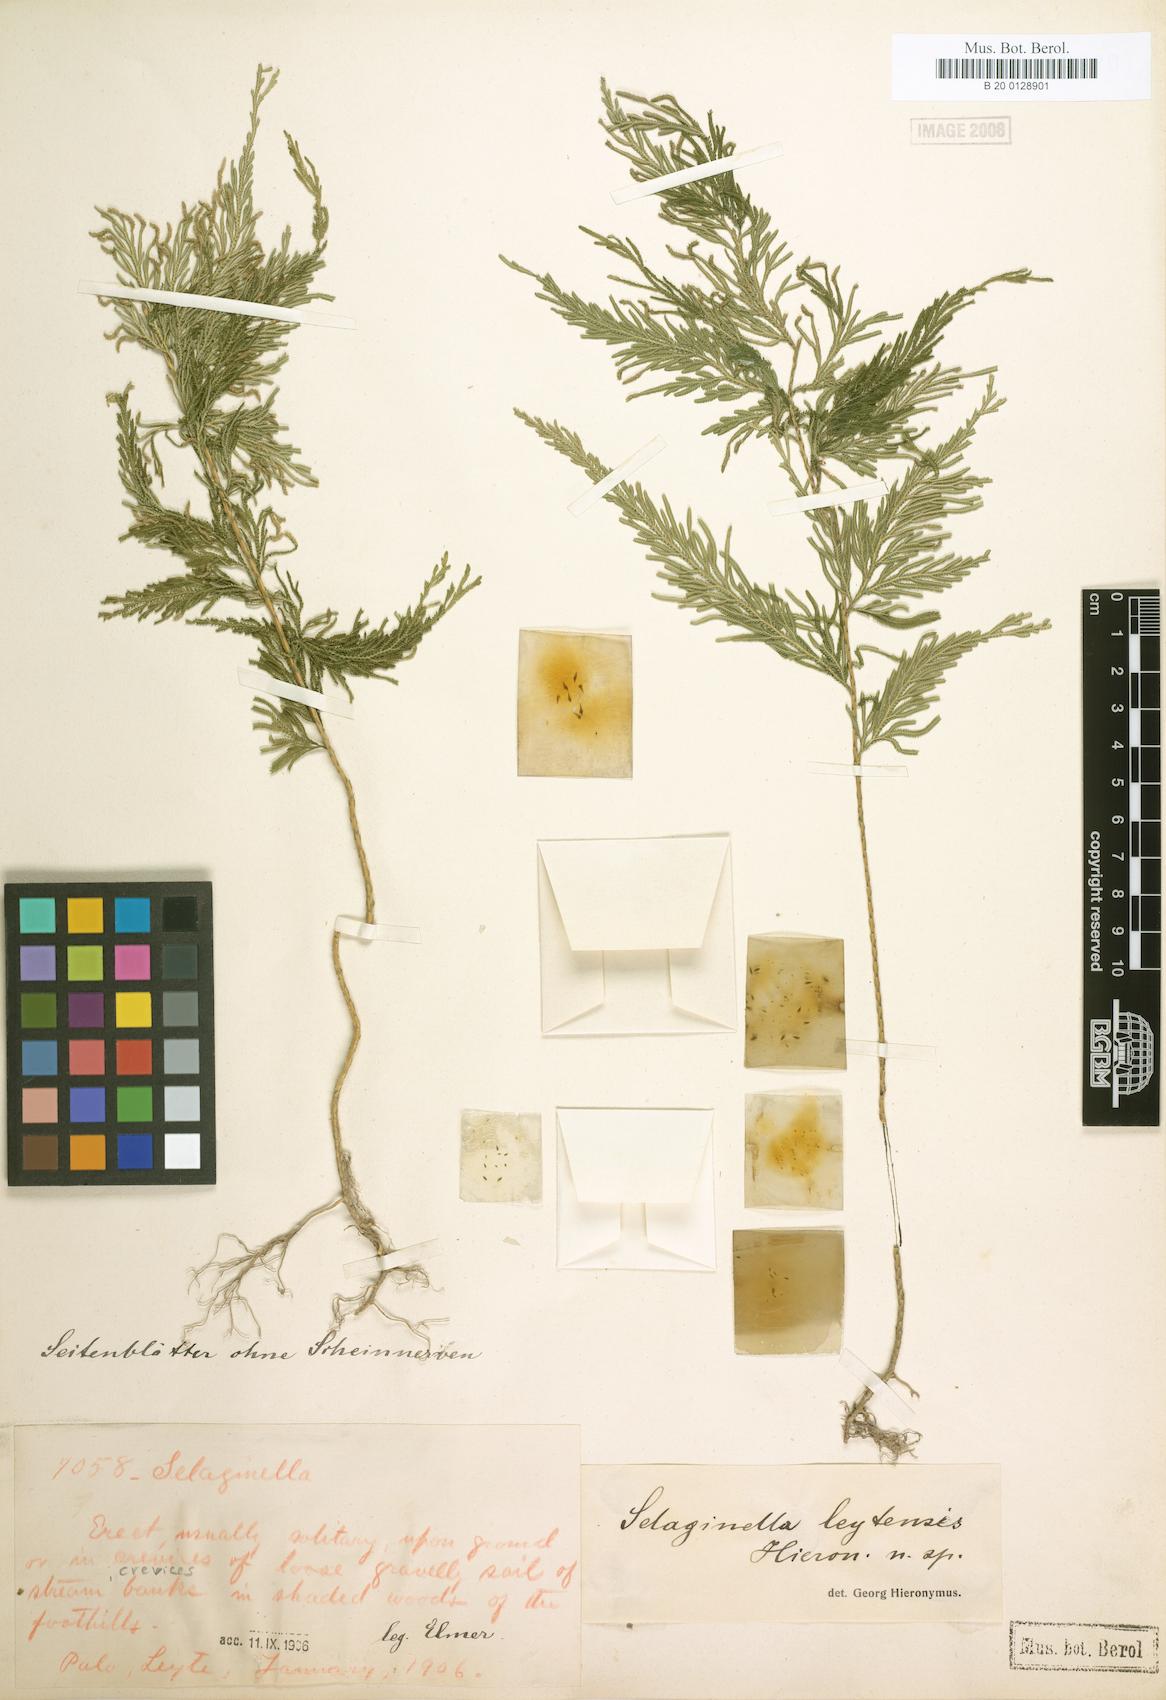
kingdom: Plantae
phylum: Tracheophyta
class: Lycopodiopsida
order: Selaginellales
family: Selaginellaceae
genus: Selaginella
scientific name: Selaginella cupressina
